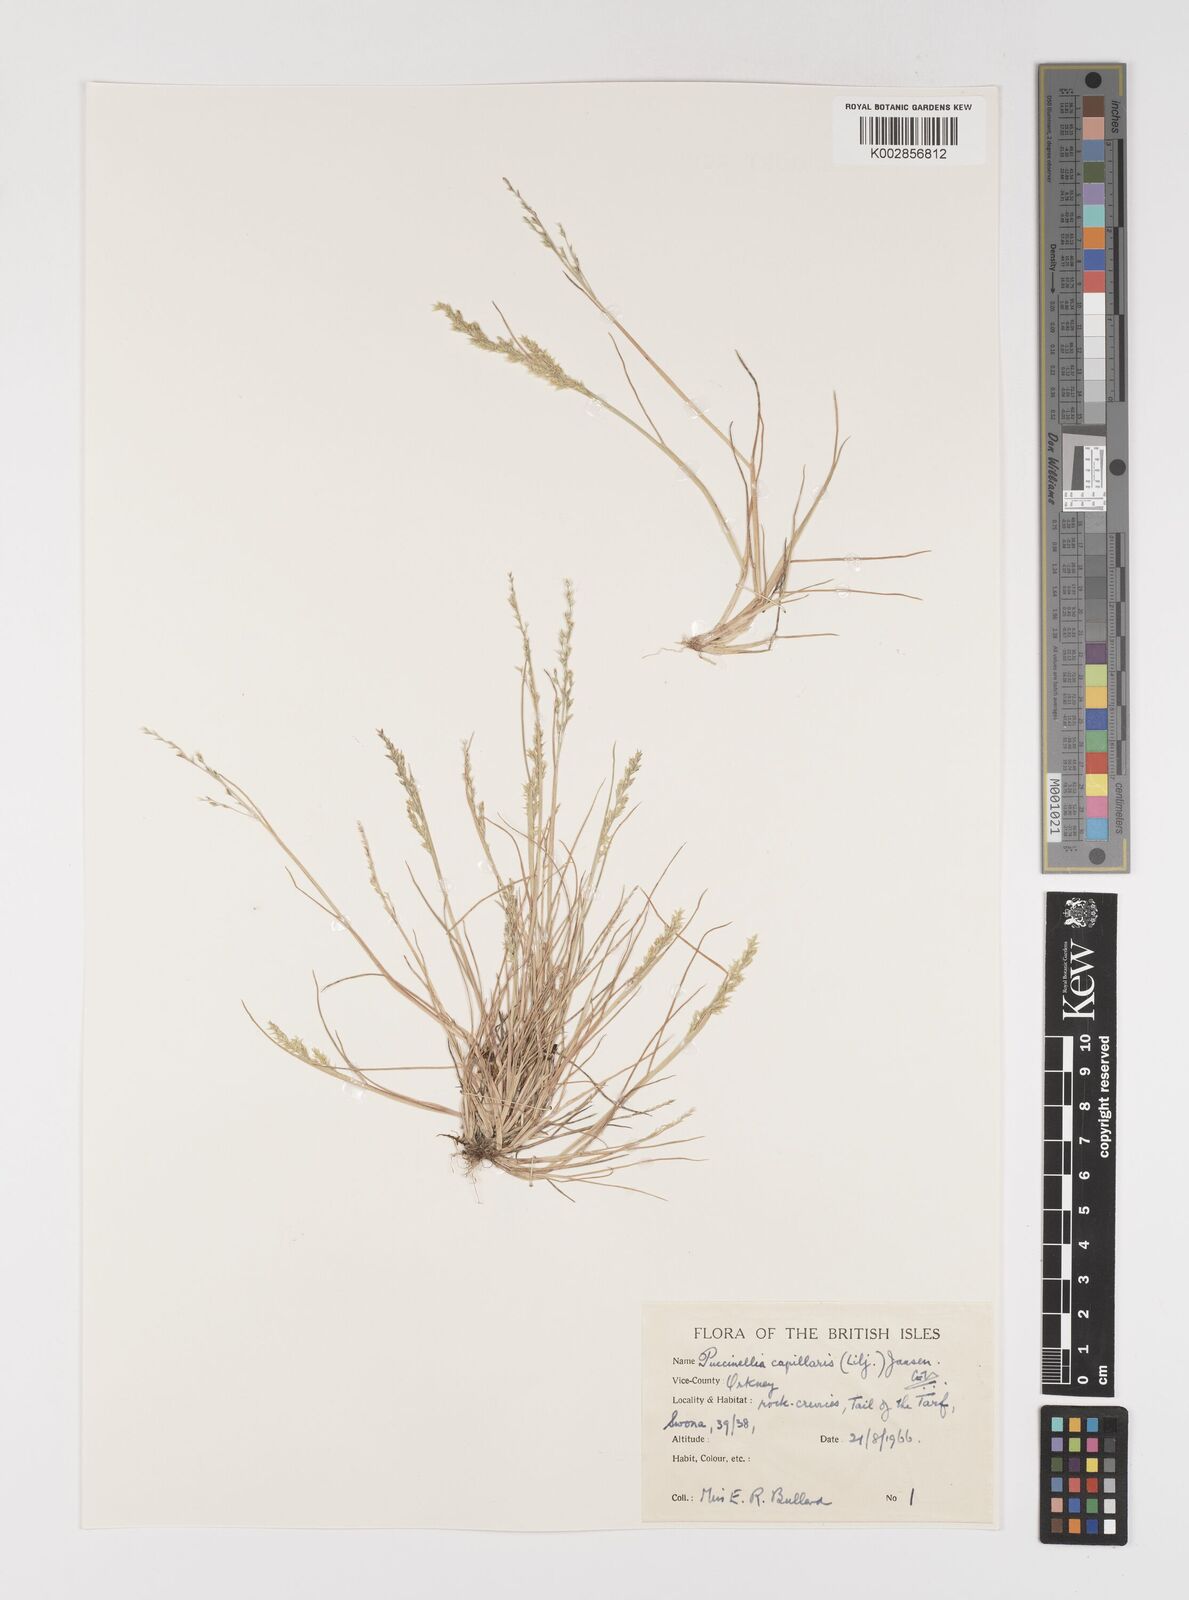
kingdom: Plantae
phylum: Tracheophyta
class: Liliopsida
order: Poales
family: Poaceae
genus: Puccinellia
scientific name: Puccinellia distans
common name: Weeping alkaligrass
